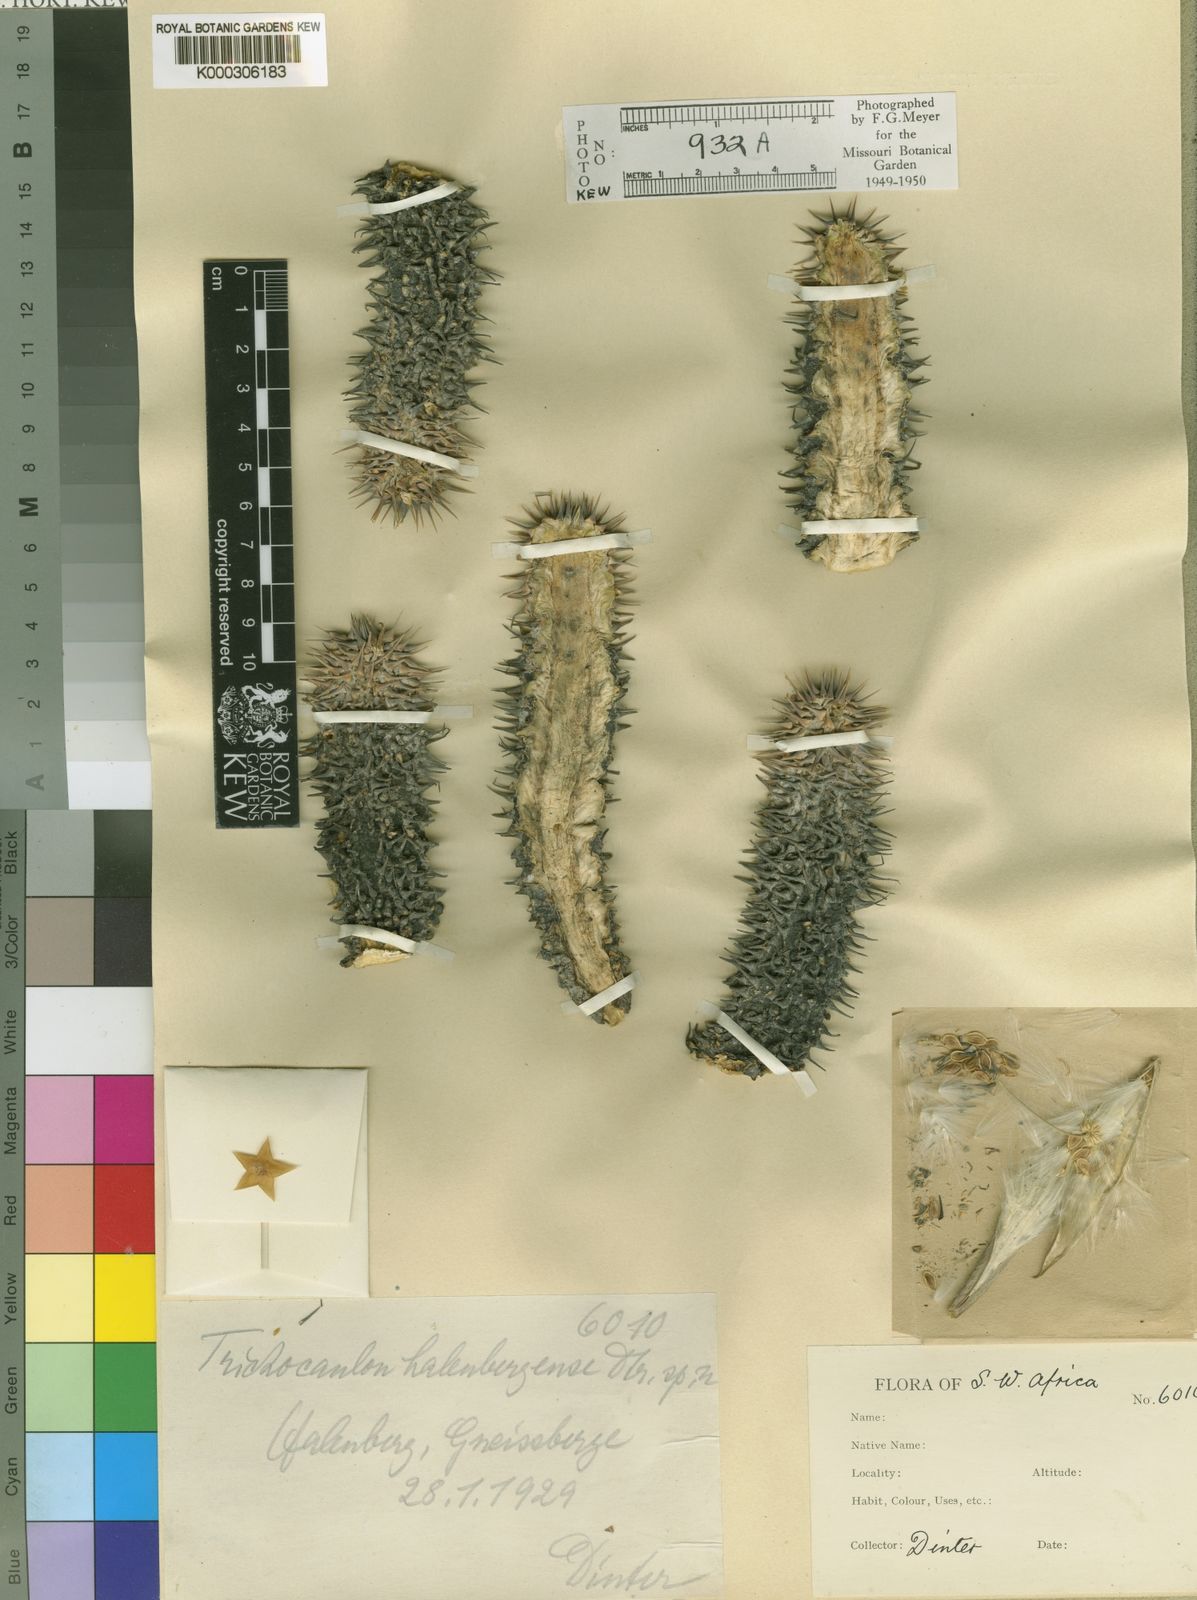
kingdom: Plantae
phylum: Tracheophyta
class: Magnoliopsida
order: Gentianales
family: Apocynaceae
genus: Ceropegia
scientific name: Ceropegia alstonii
